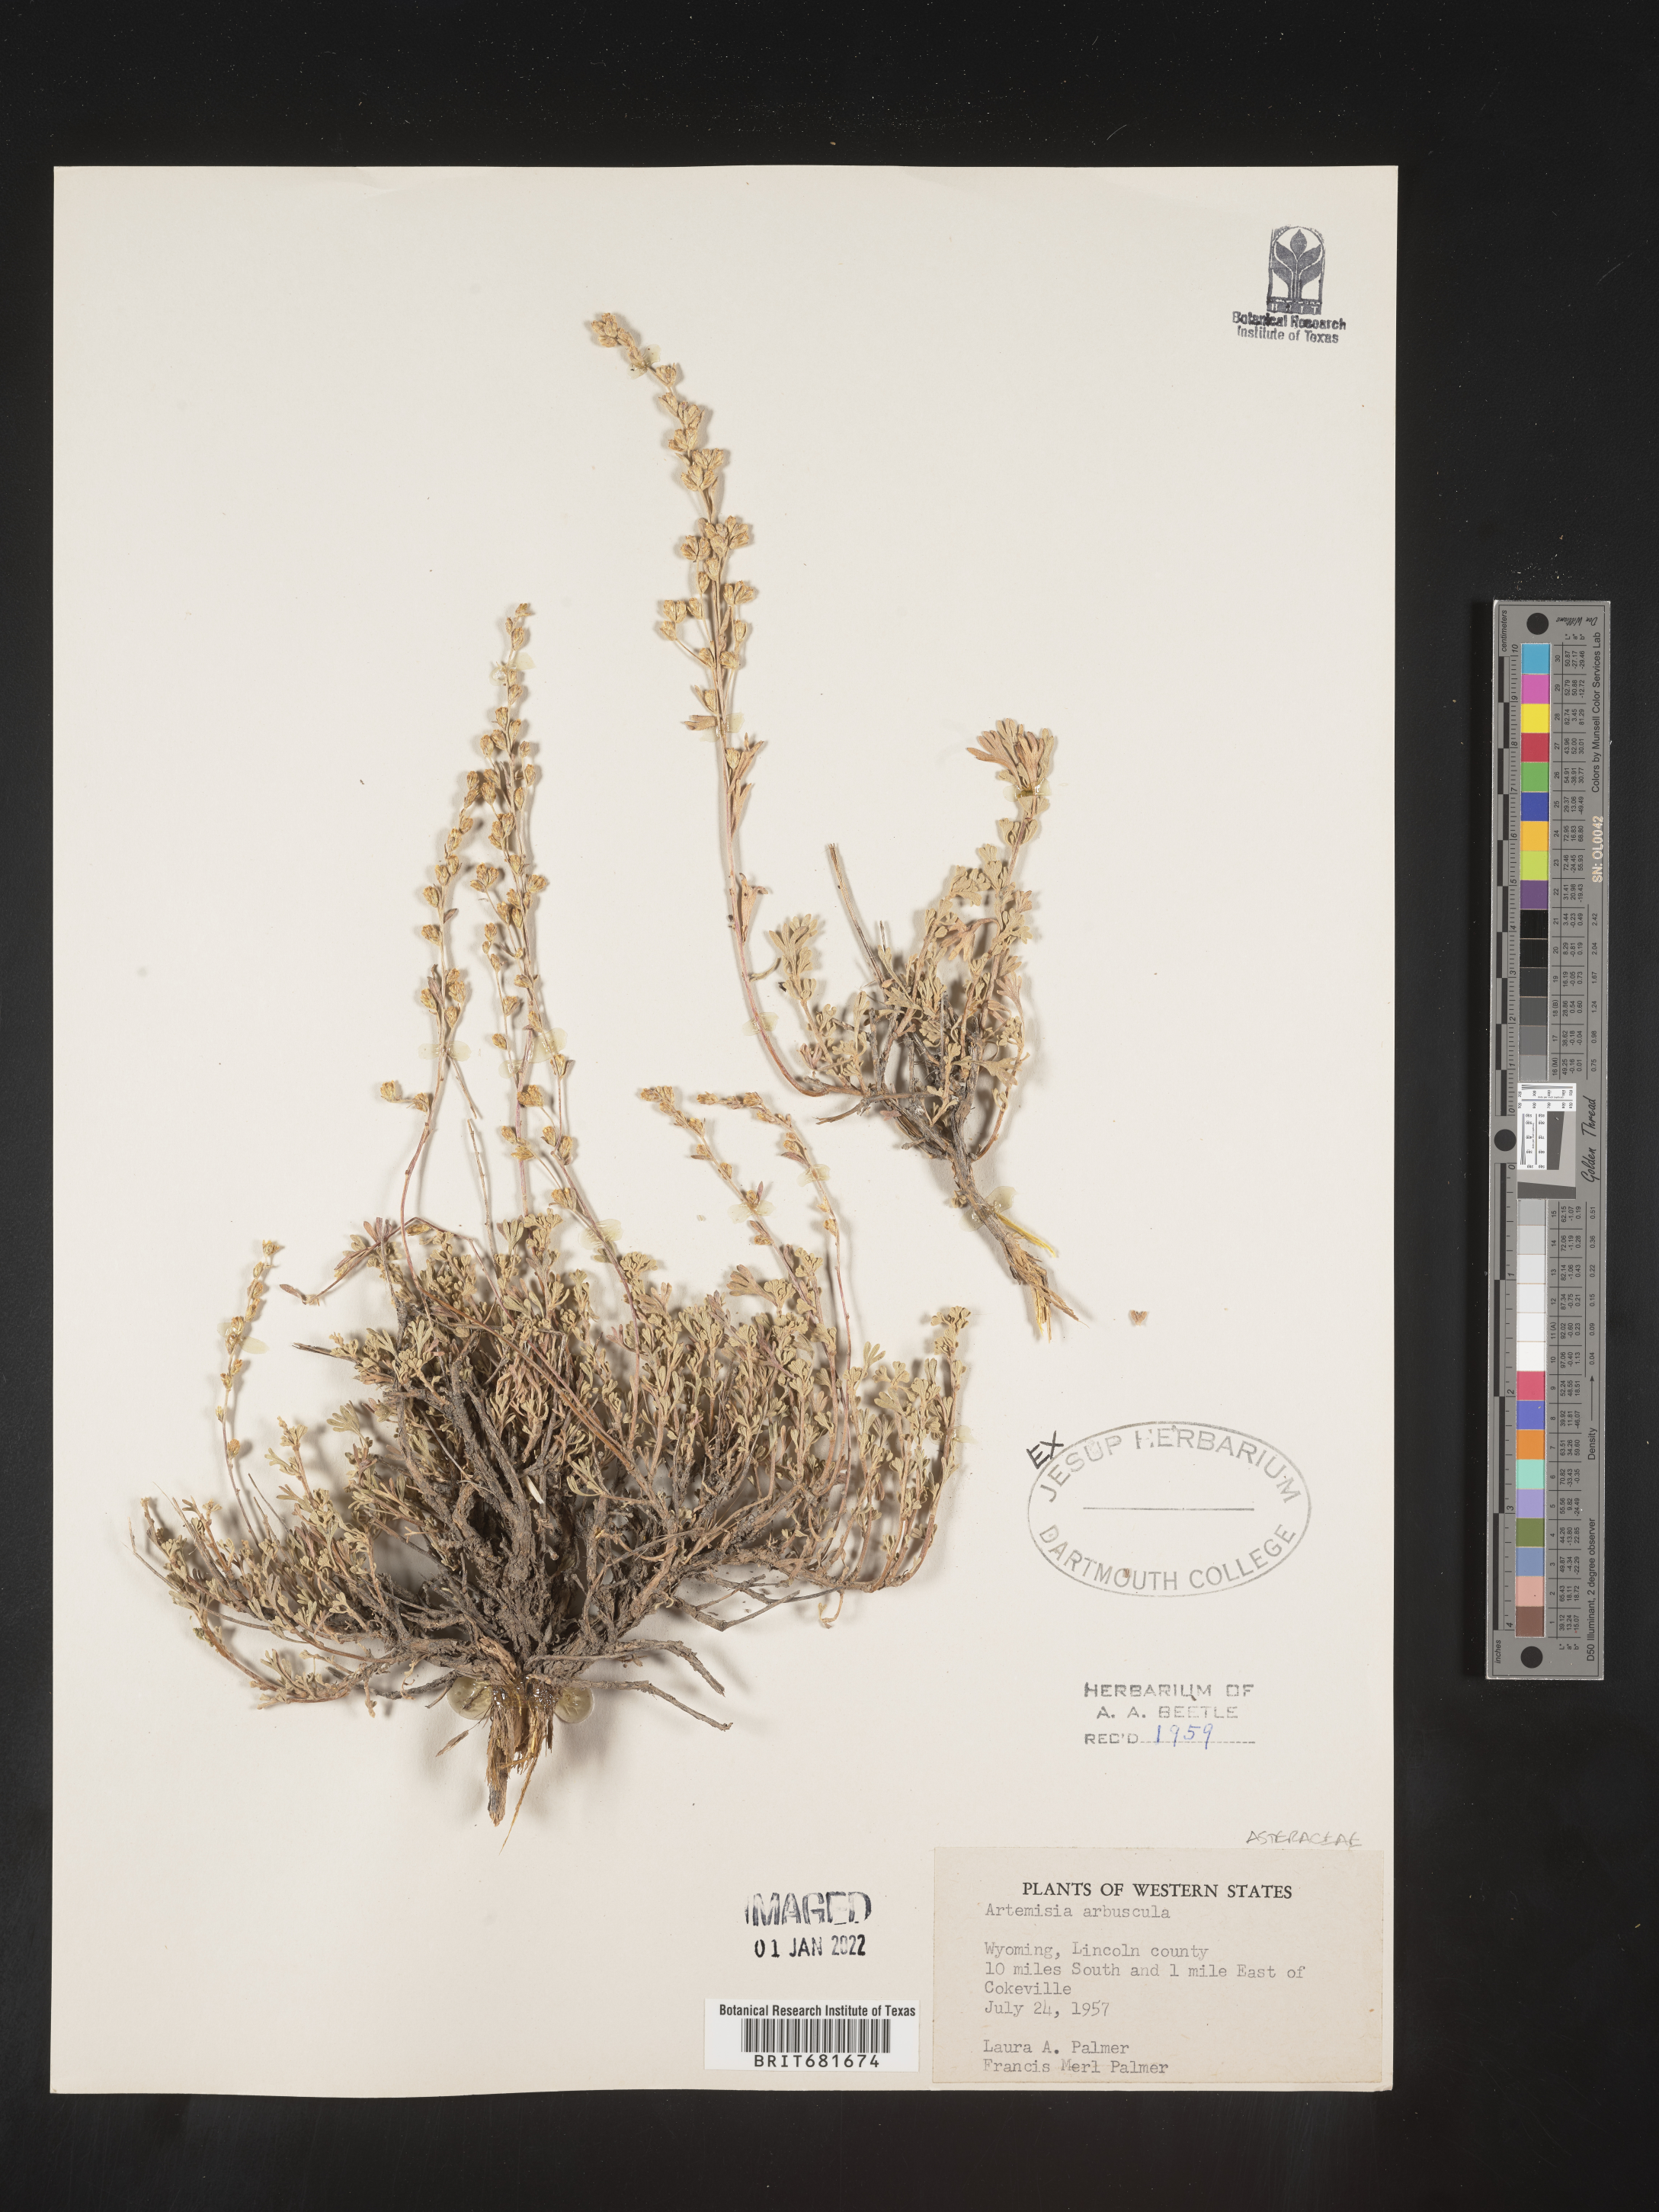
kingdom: Plantae
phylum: Tracheophyta
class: Magnoliopsida
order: Asterales
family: Asteraceae
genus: Artemisia
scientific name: Artemisia arbuscula
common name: Sagebrush
